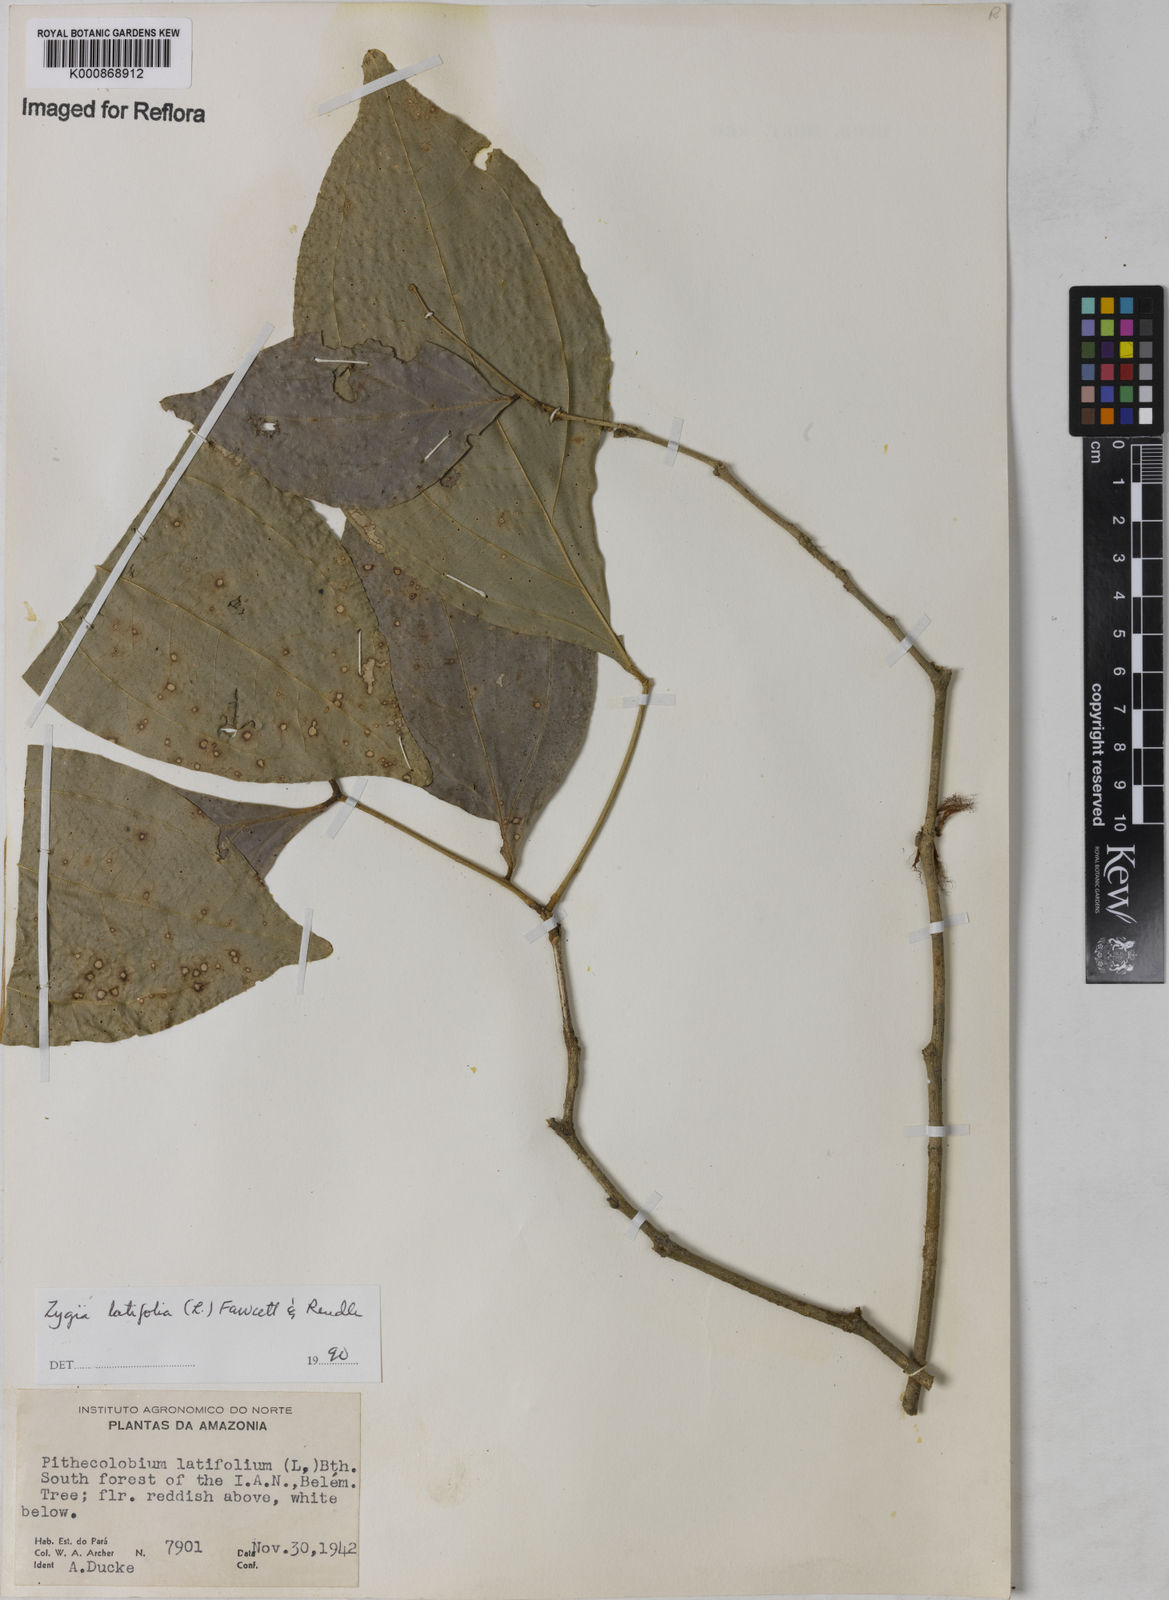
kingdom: Plantae
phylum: Tracheophyta
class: Magnoliopsida
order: Fabales
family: Fabaceae
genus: Zygia
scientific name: Zygia latifolia
